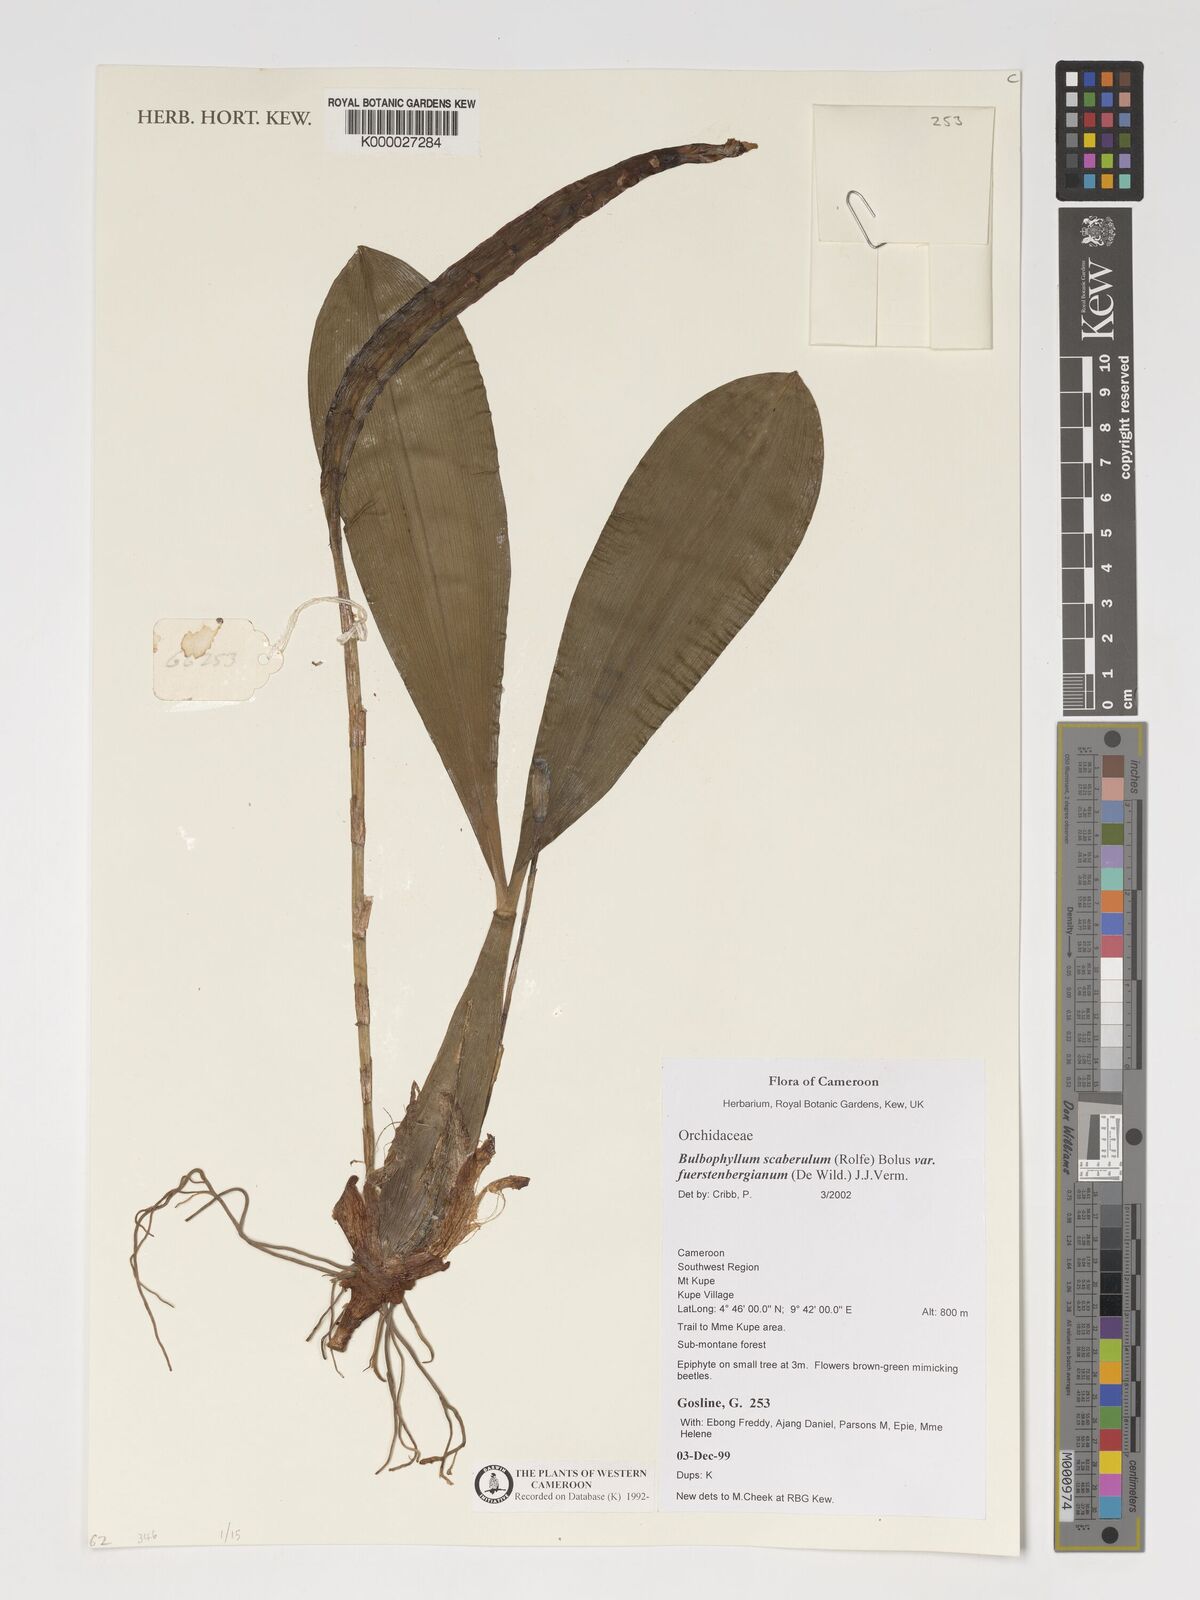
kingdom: Plantae
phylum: Tracheophyta
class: Liliopsida
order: Asparagales
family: Orchidaceae
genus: Bulbophyllum
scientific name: Bulbophyllum scaberulum
